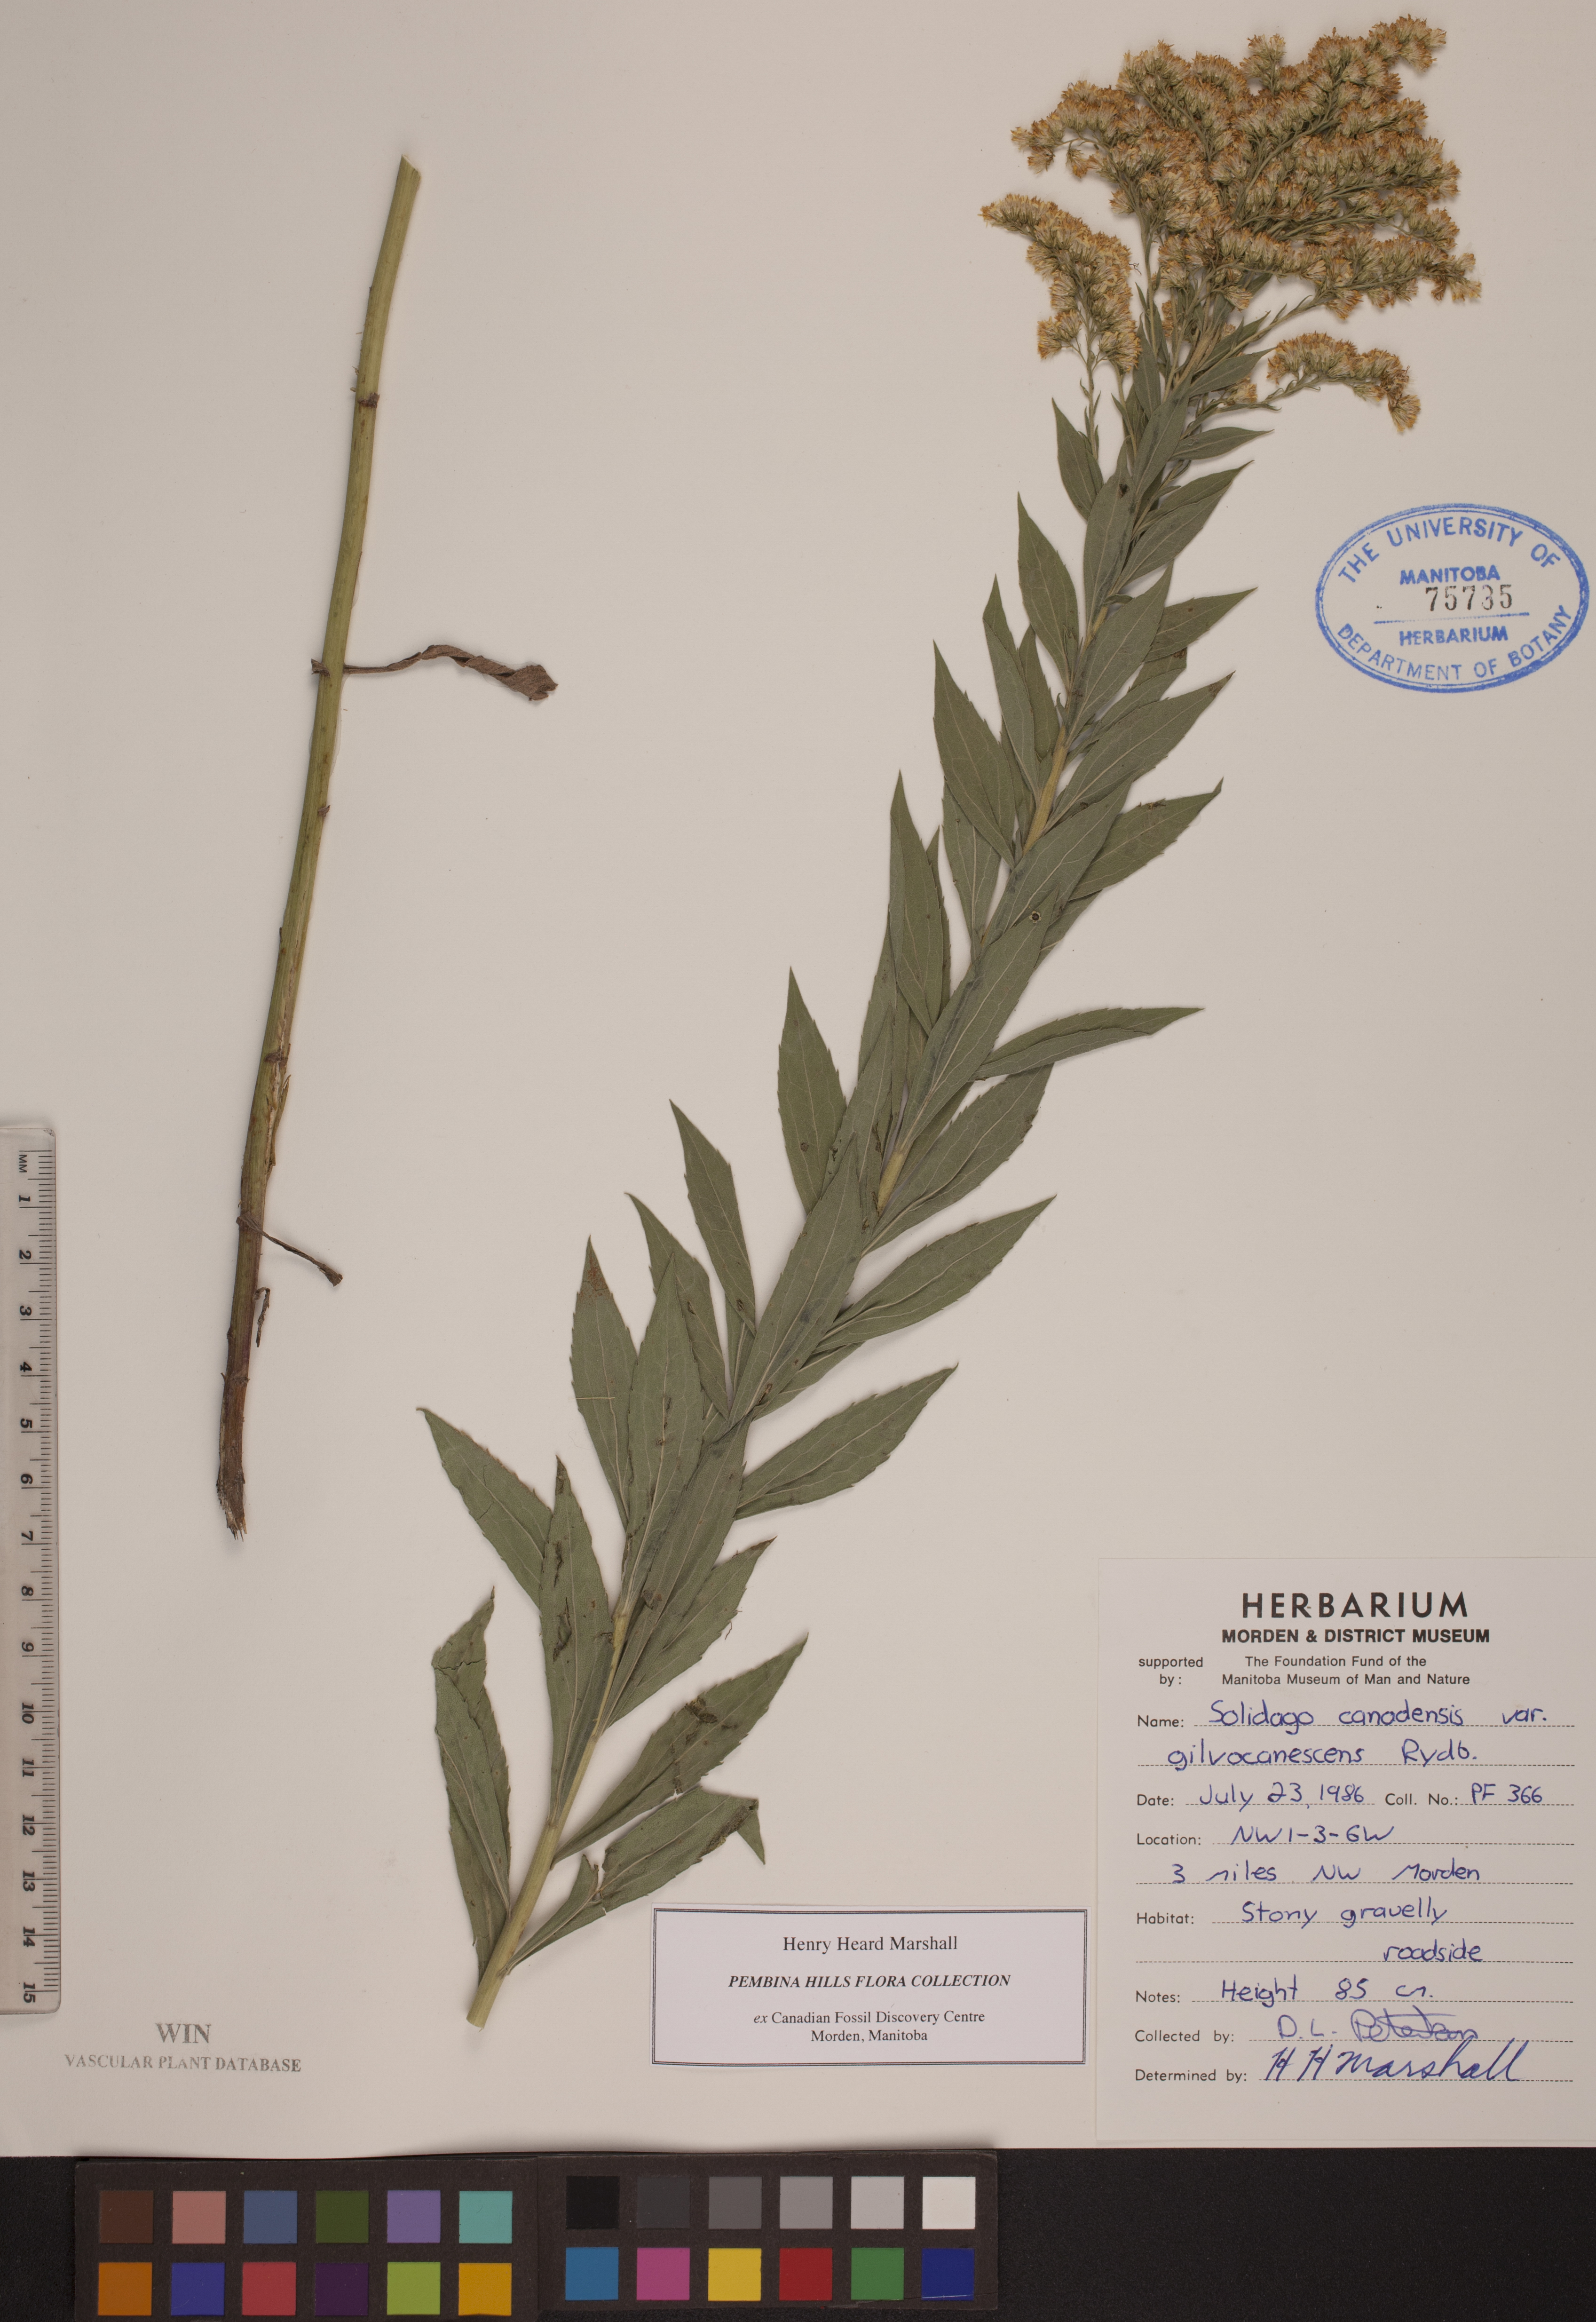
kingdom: Plantae
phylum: Tracheophyta
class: Magnoliopsida
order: Asterales
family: Asteraceae
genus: Solidago
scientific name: Solidago altissima
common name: Late goldenrod
